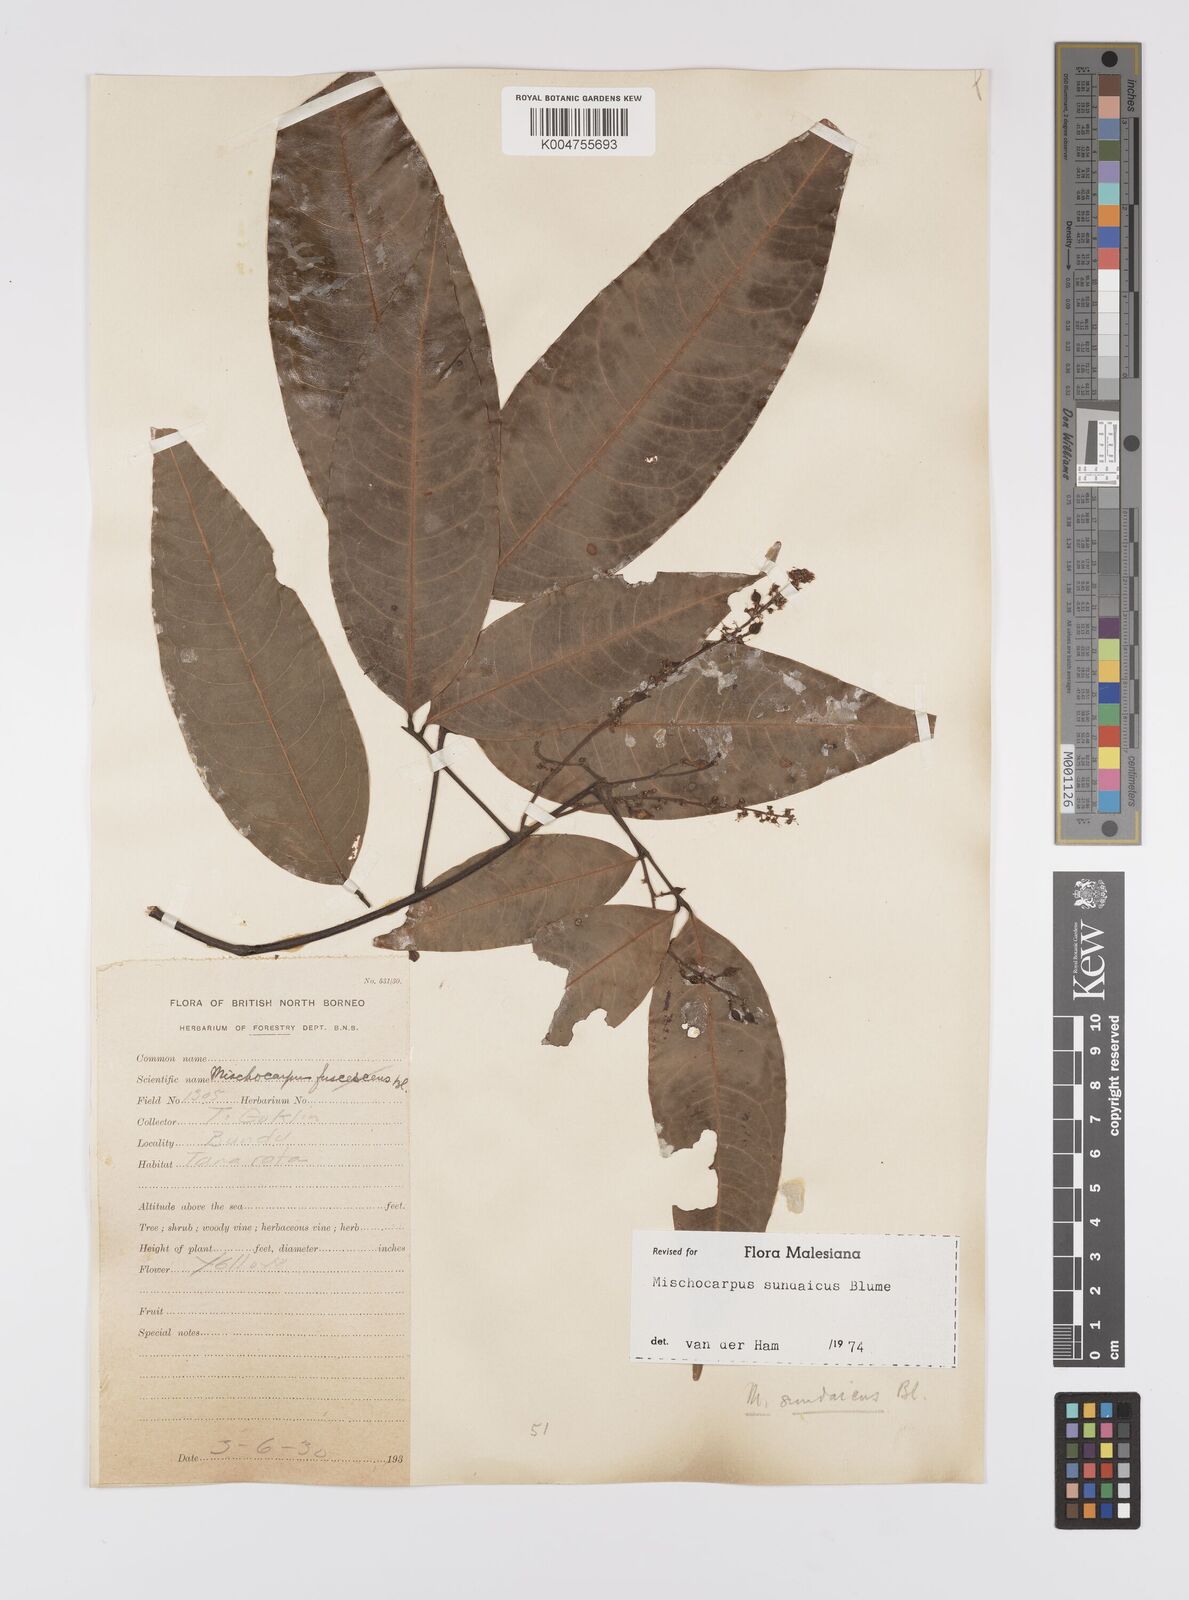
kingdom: Plantae
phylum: Tracheophyta
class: Magnoliopsida
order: Sapindales
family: Sapindaceae
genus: Mischocarpus
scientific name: Mischocarpus sundaicus
